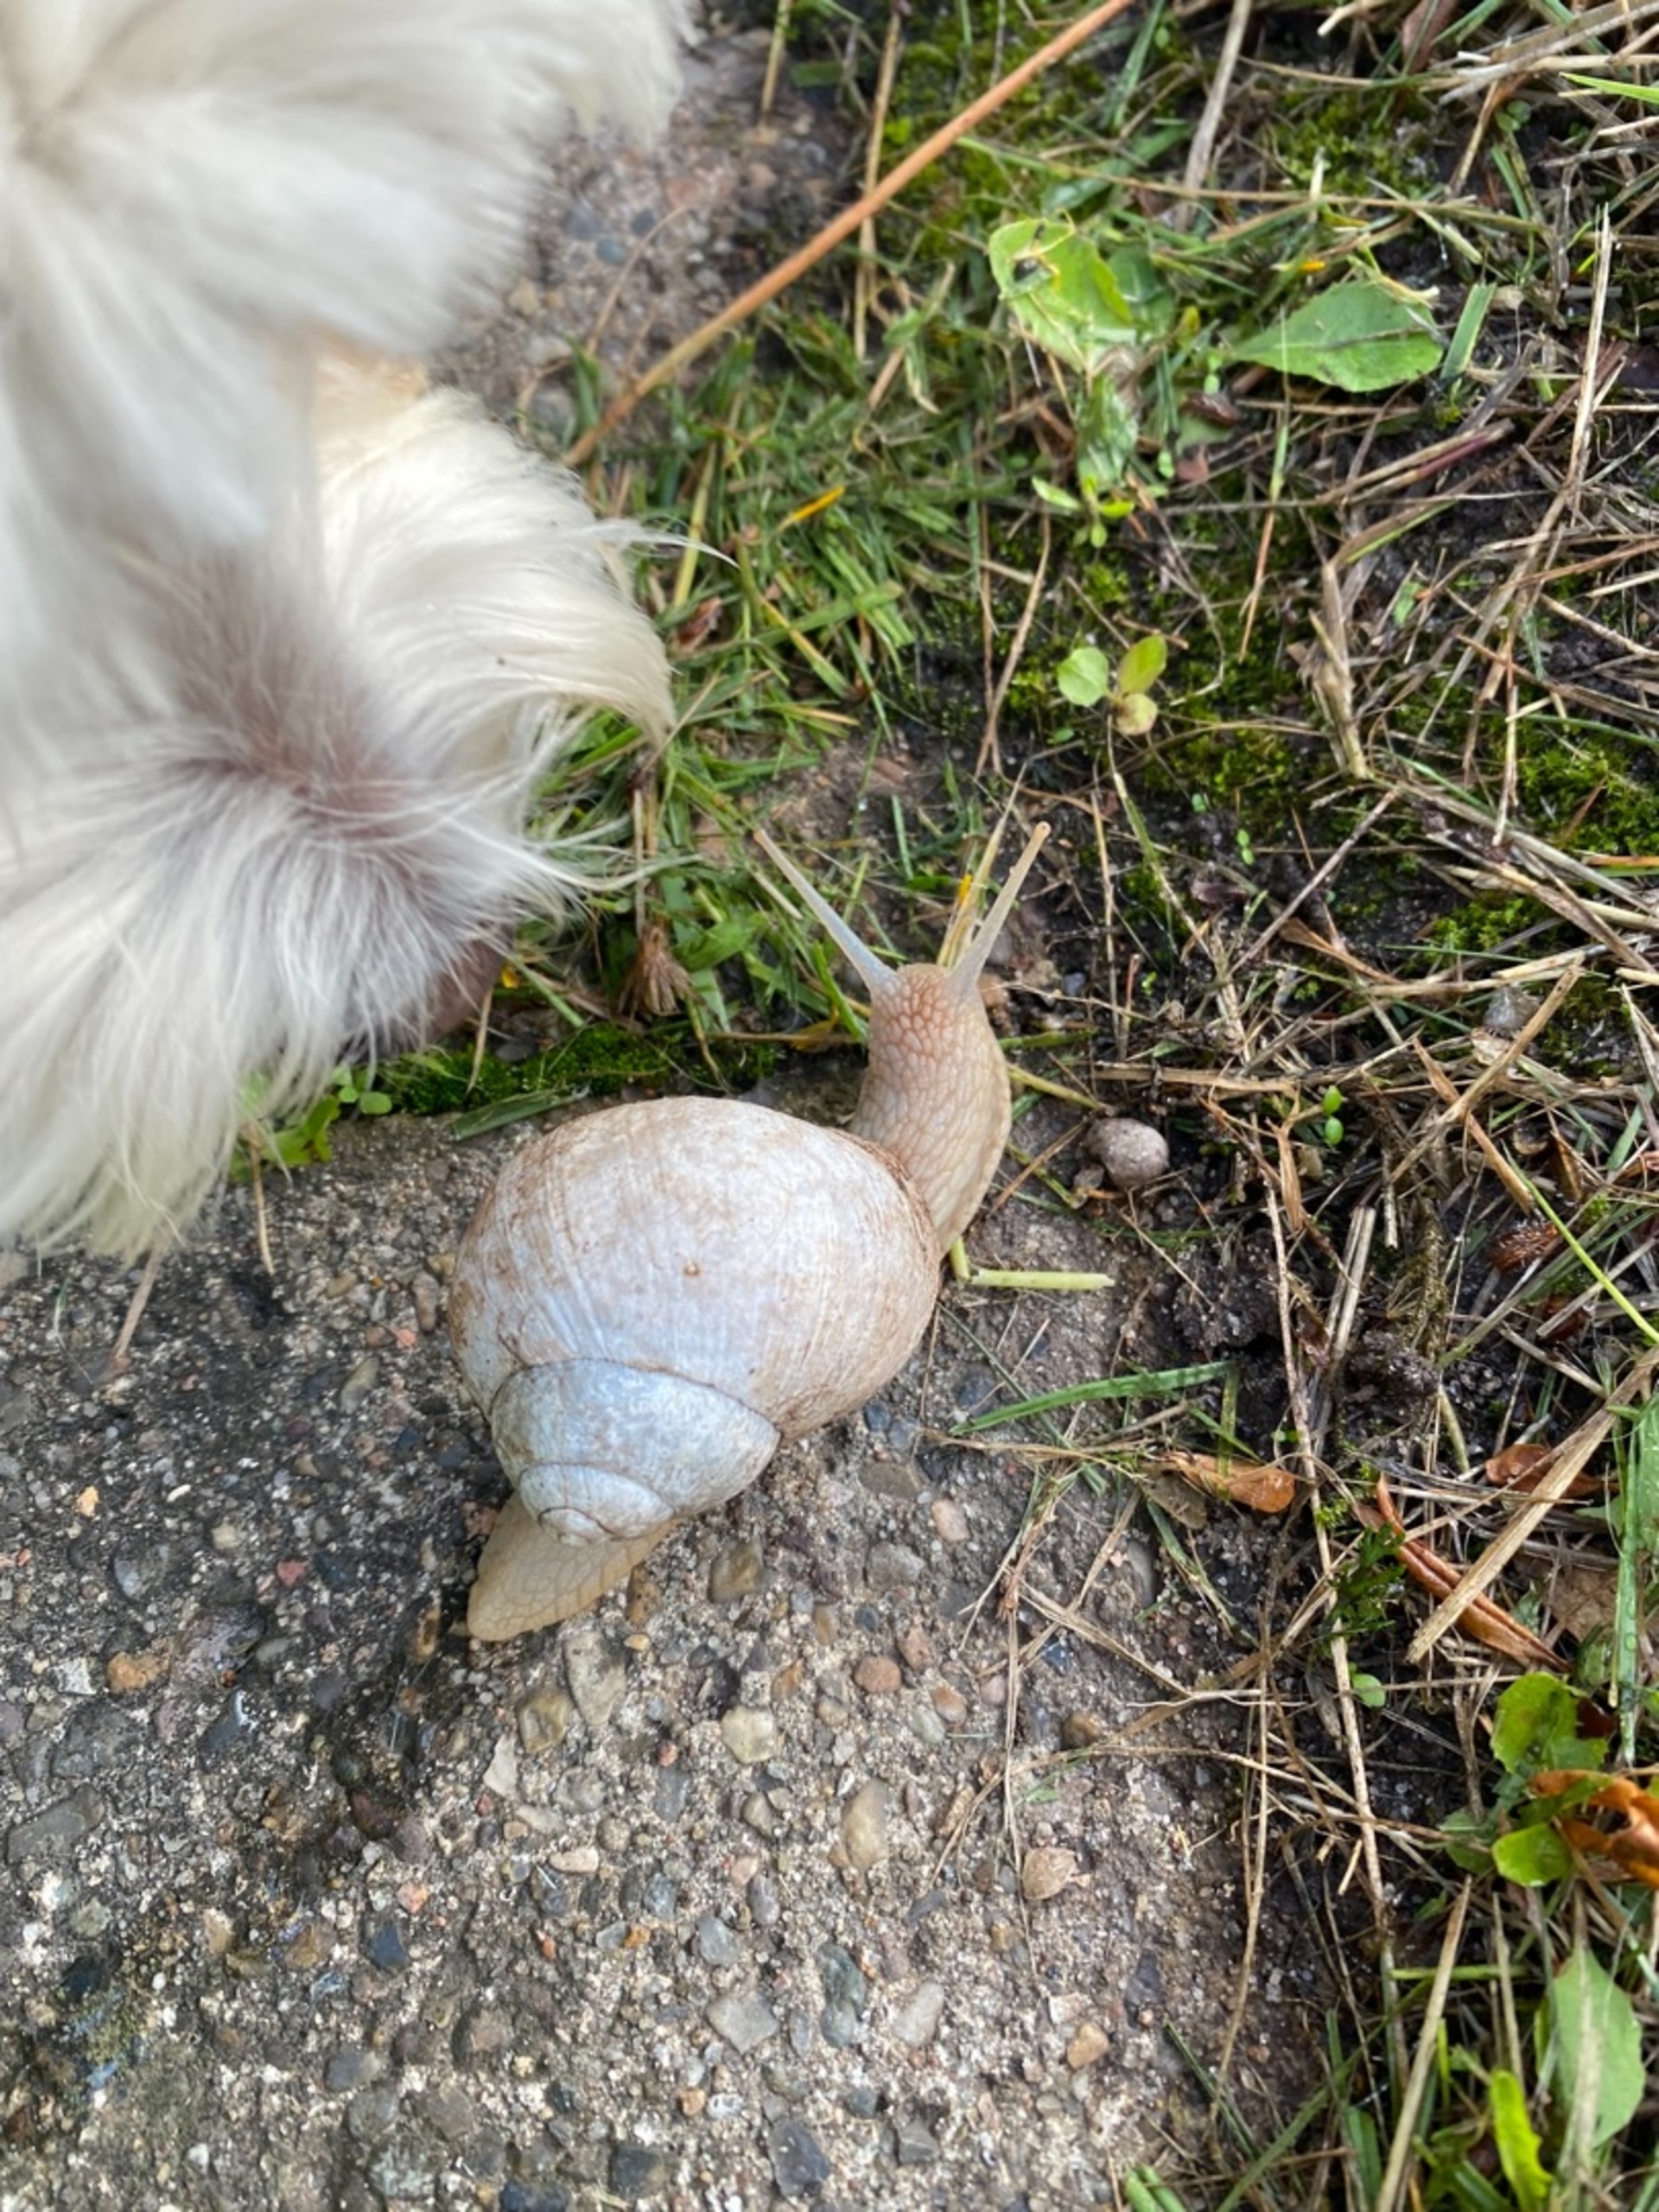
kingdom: Animalia
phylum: Mollusca
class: Gastropoda
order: Stylommatophora
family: Helicidae
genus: Helix
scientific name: Helix pomatia
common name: Vinbjergsnegl
